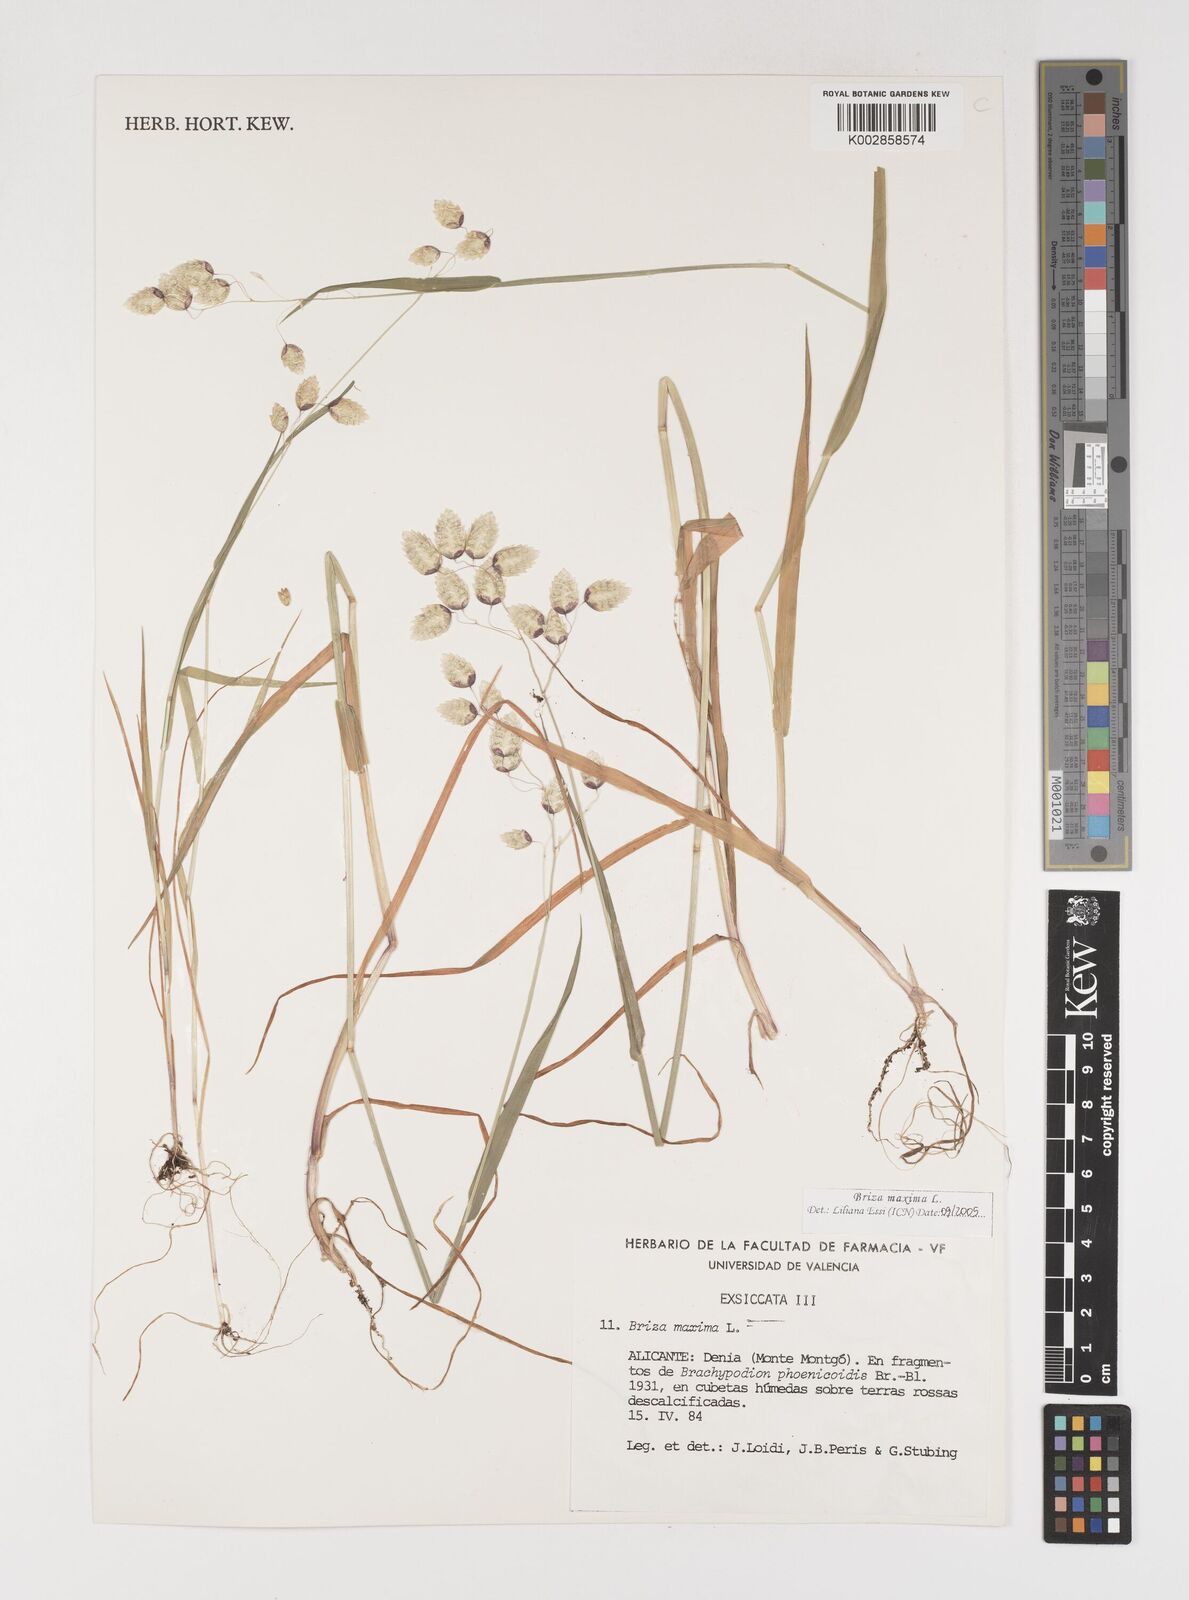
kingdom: Plantae
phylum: Tracheophyta
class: Liliopsida
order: Poales
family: Poaceae
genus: Briza
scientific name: Briza maxima
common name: Big quakinggrass
